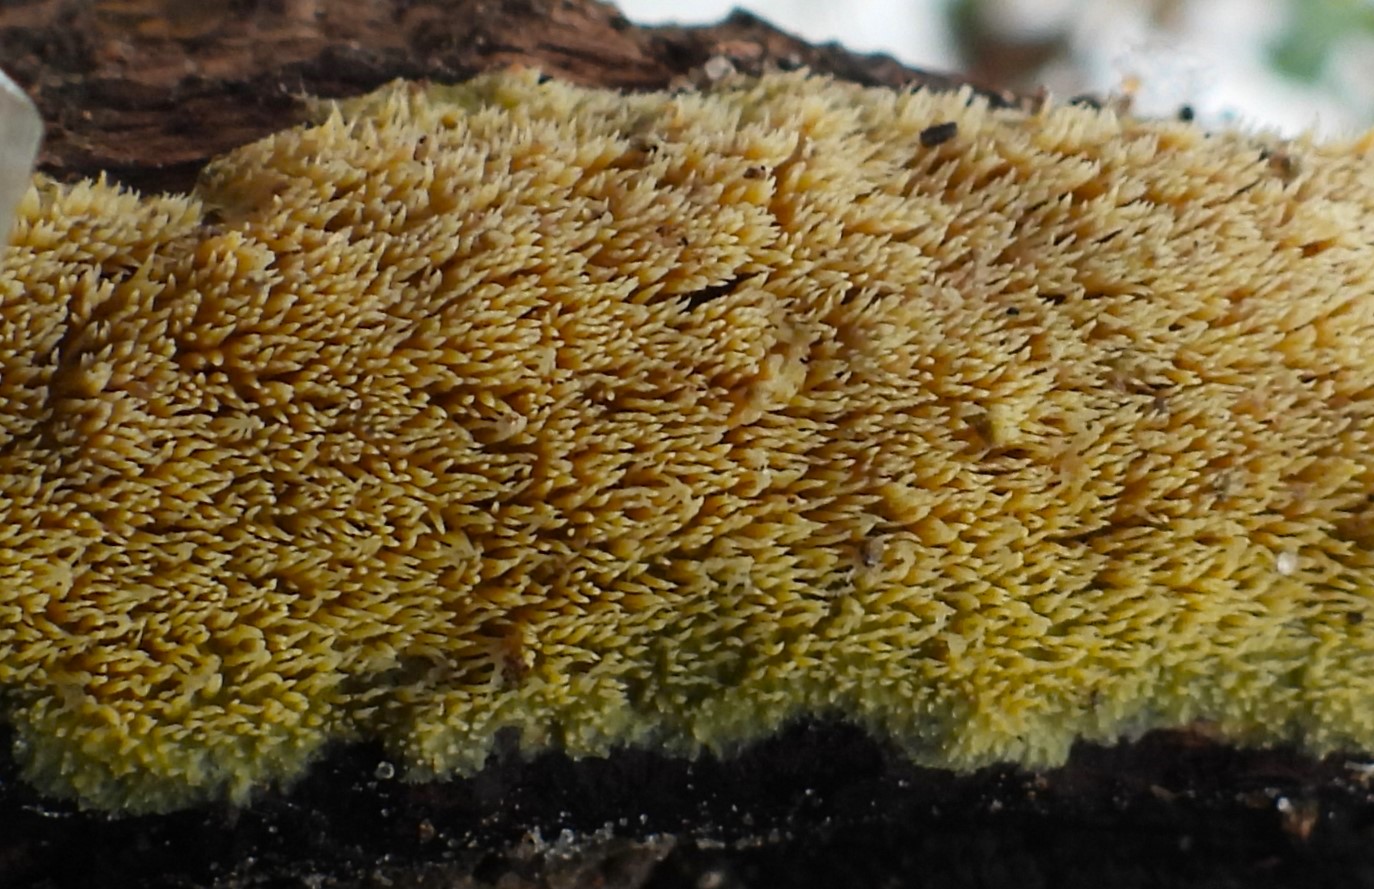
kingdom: Fungi
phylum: Basidiomycota
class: Agaricomycetes
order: Polyporales
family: Meruliaceae
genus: Mycoacia
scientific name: Mycoacia uda
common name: citrongul vokspig
